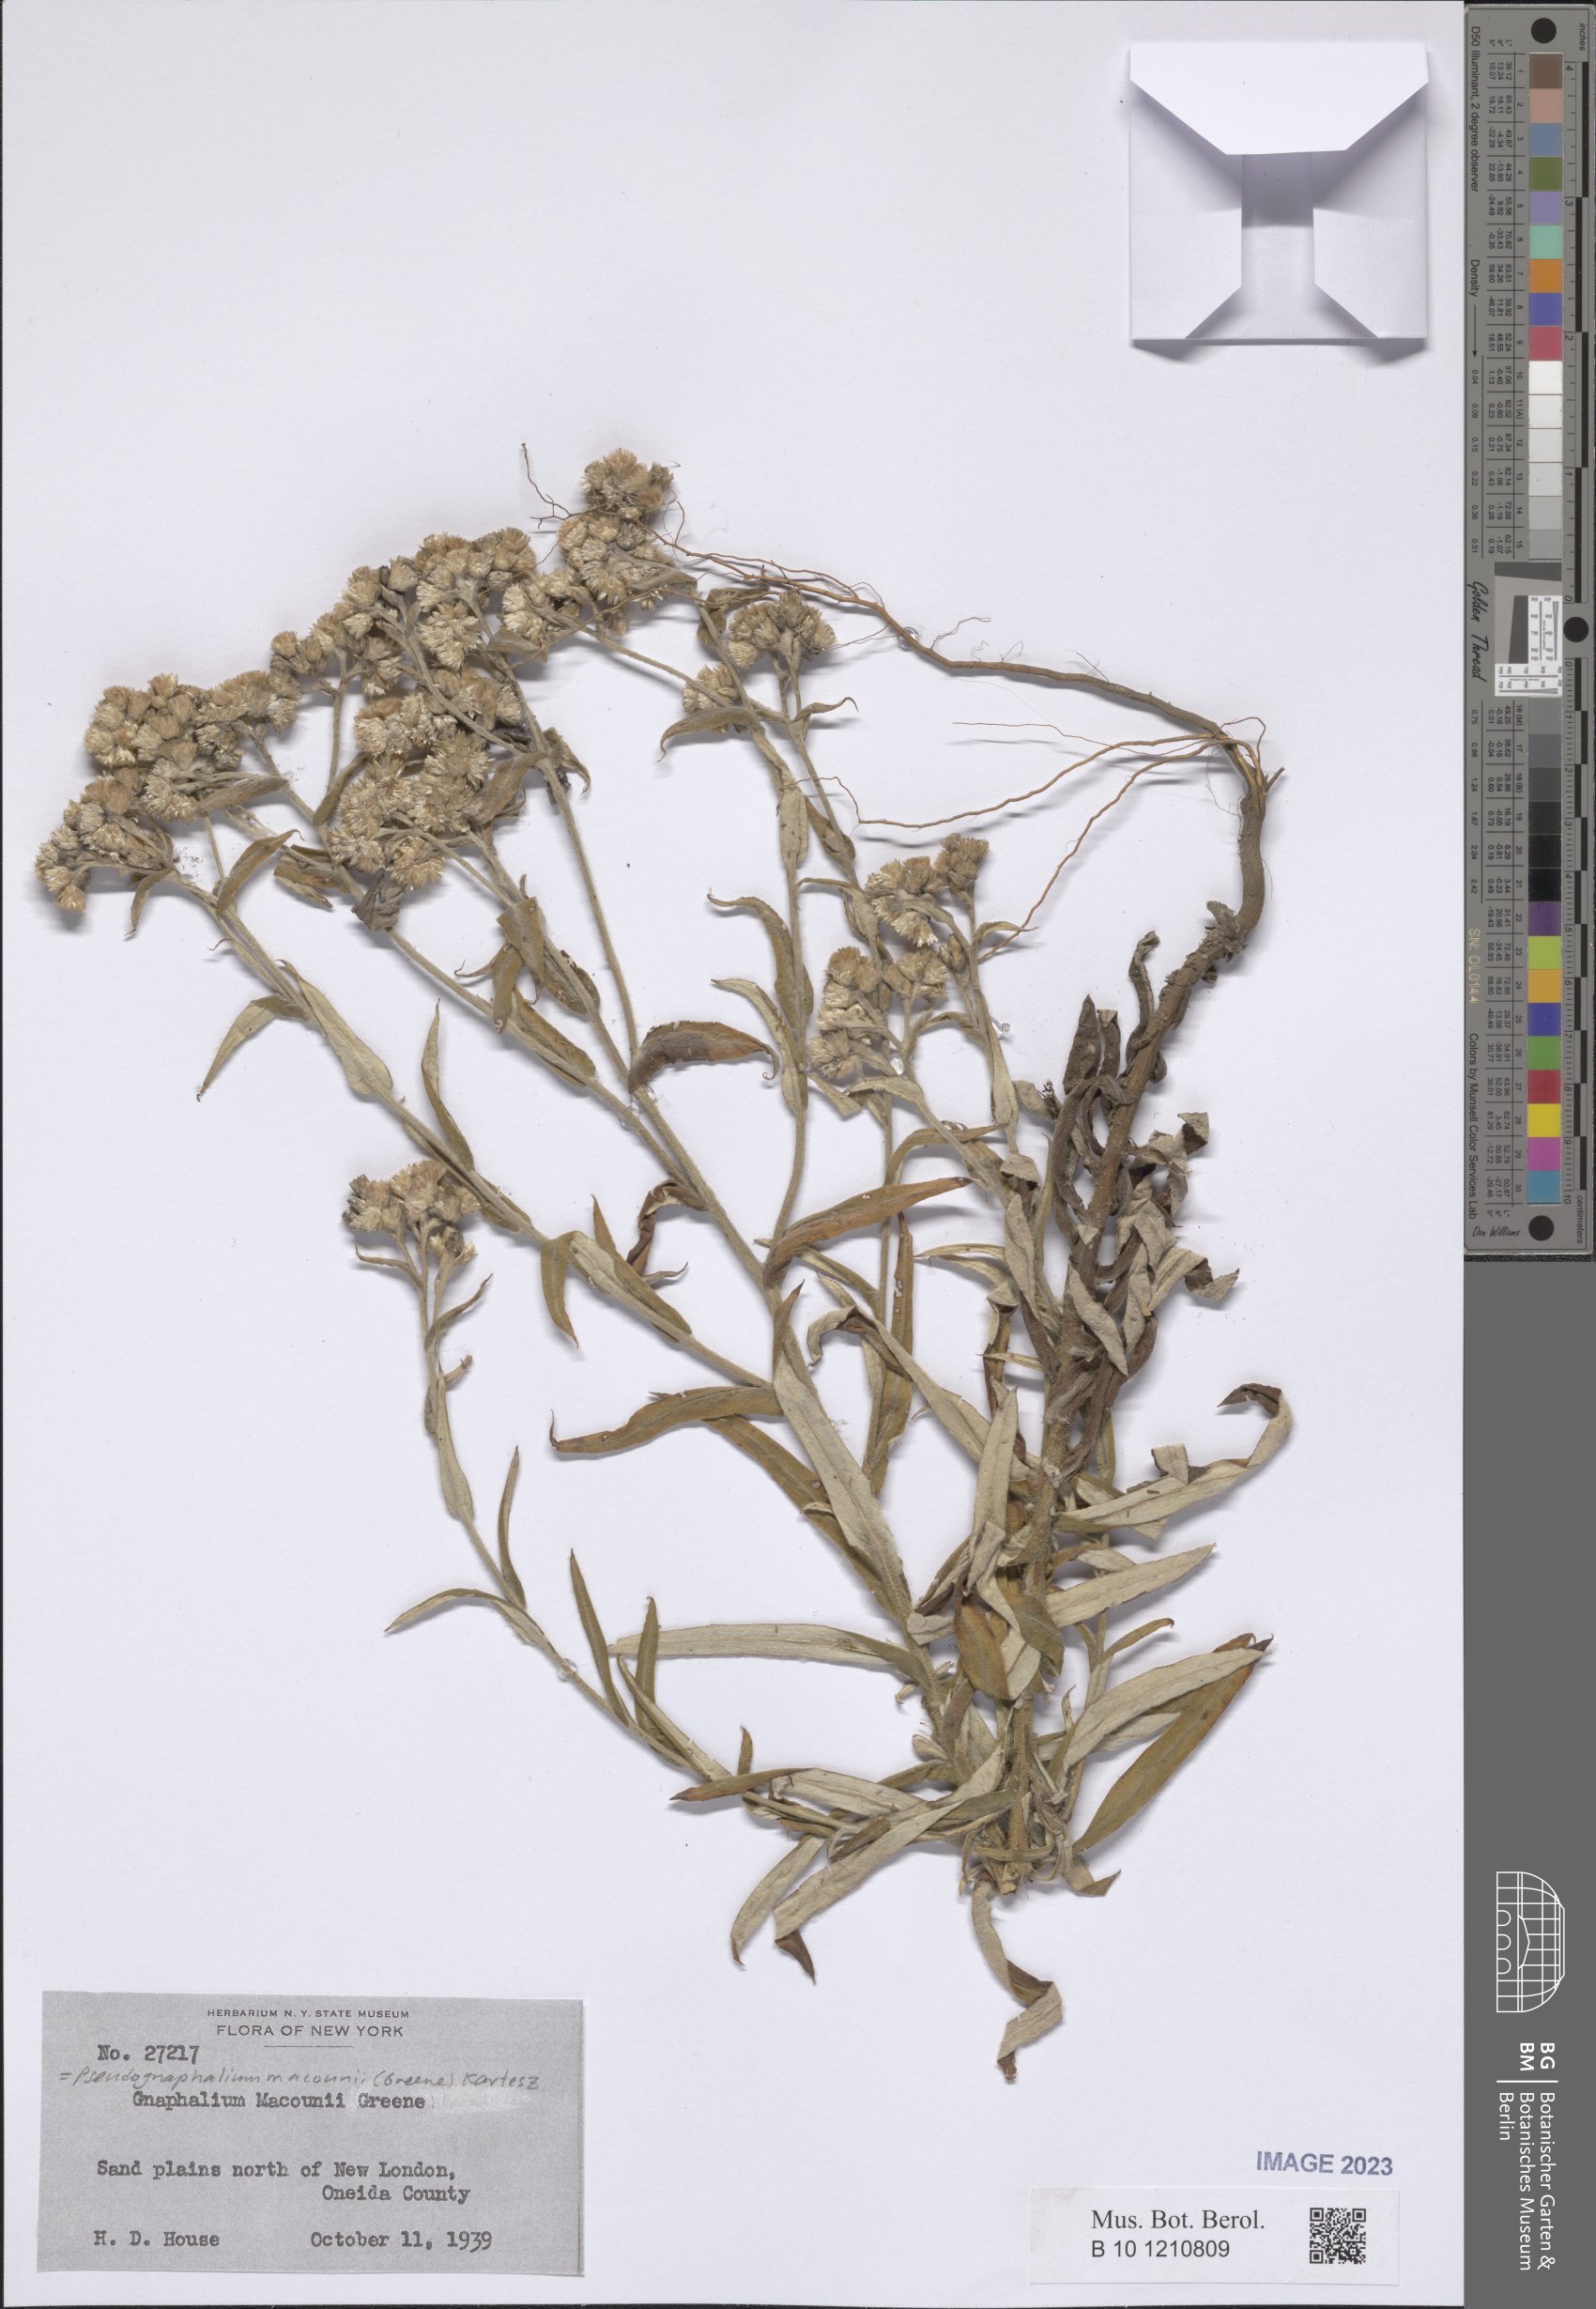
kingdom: Plantae
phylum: Tracheophyta
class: Magnoliopsida
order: Asterales
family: Asteraceae
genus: Pseudognaphalium
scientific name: Pseudognaphalium macounii
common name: Clammy cudweed
